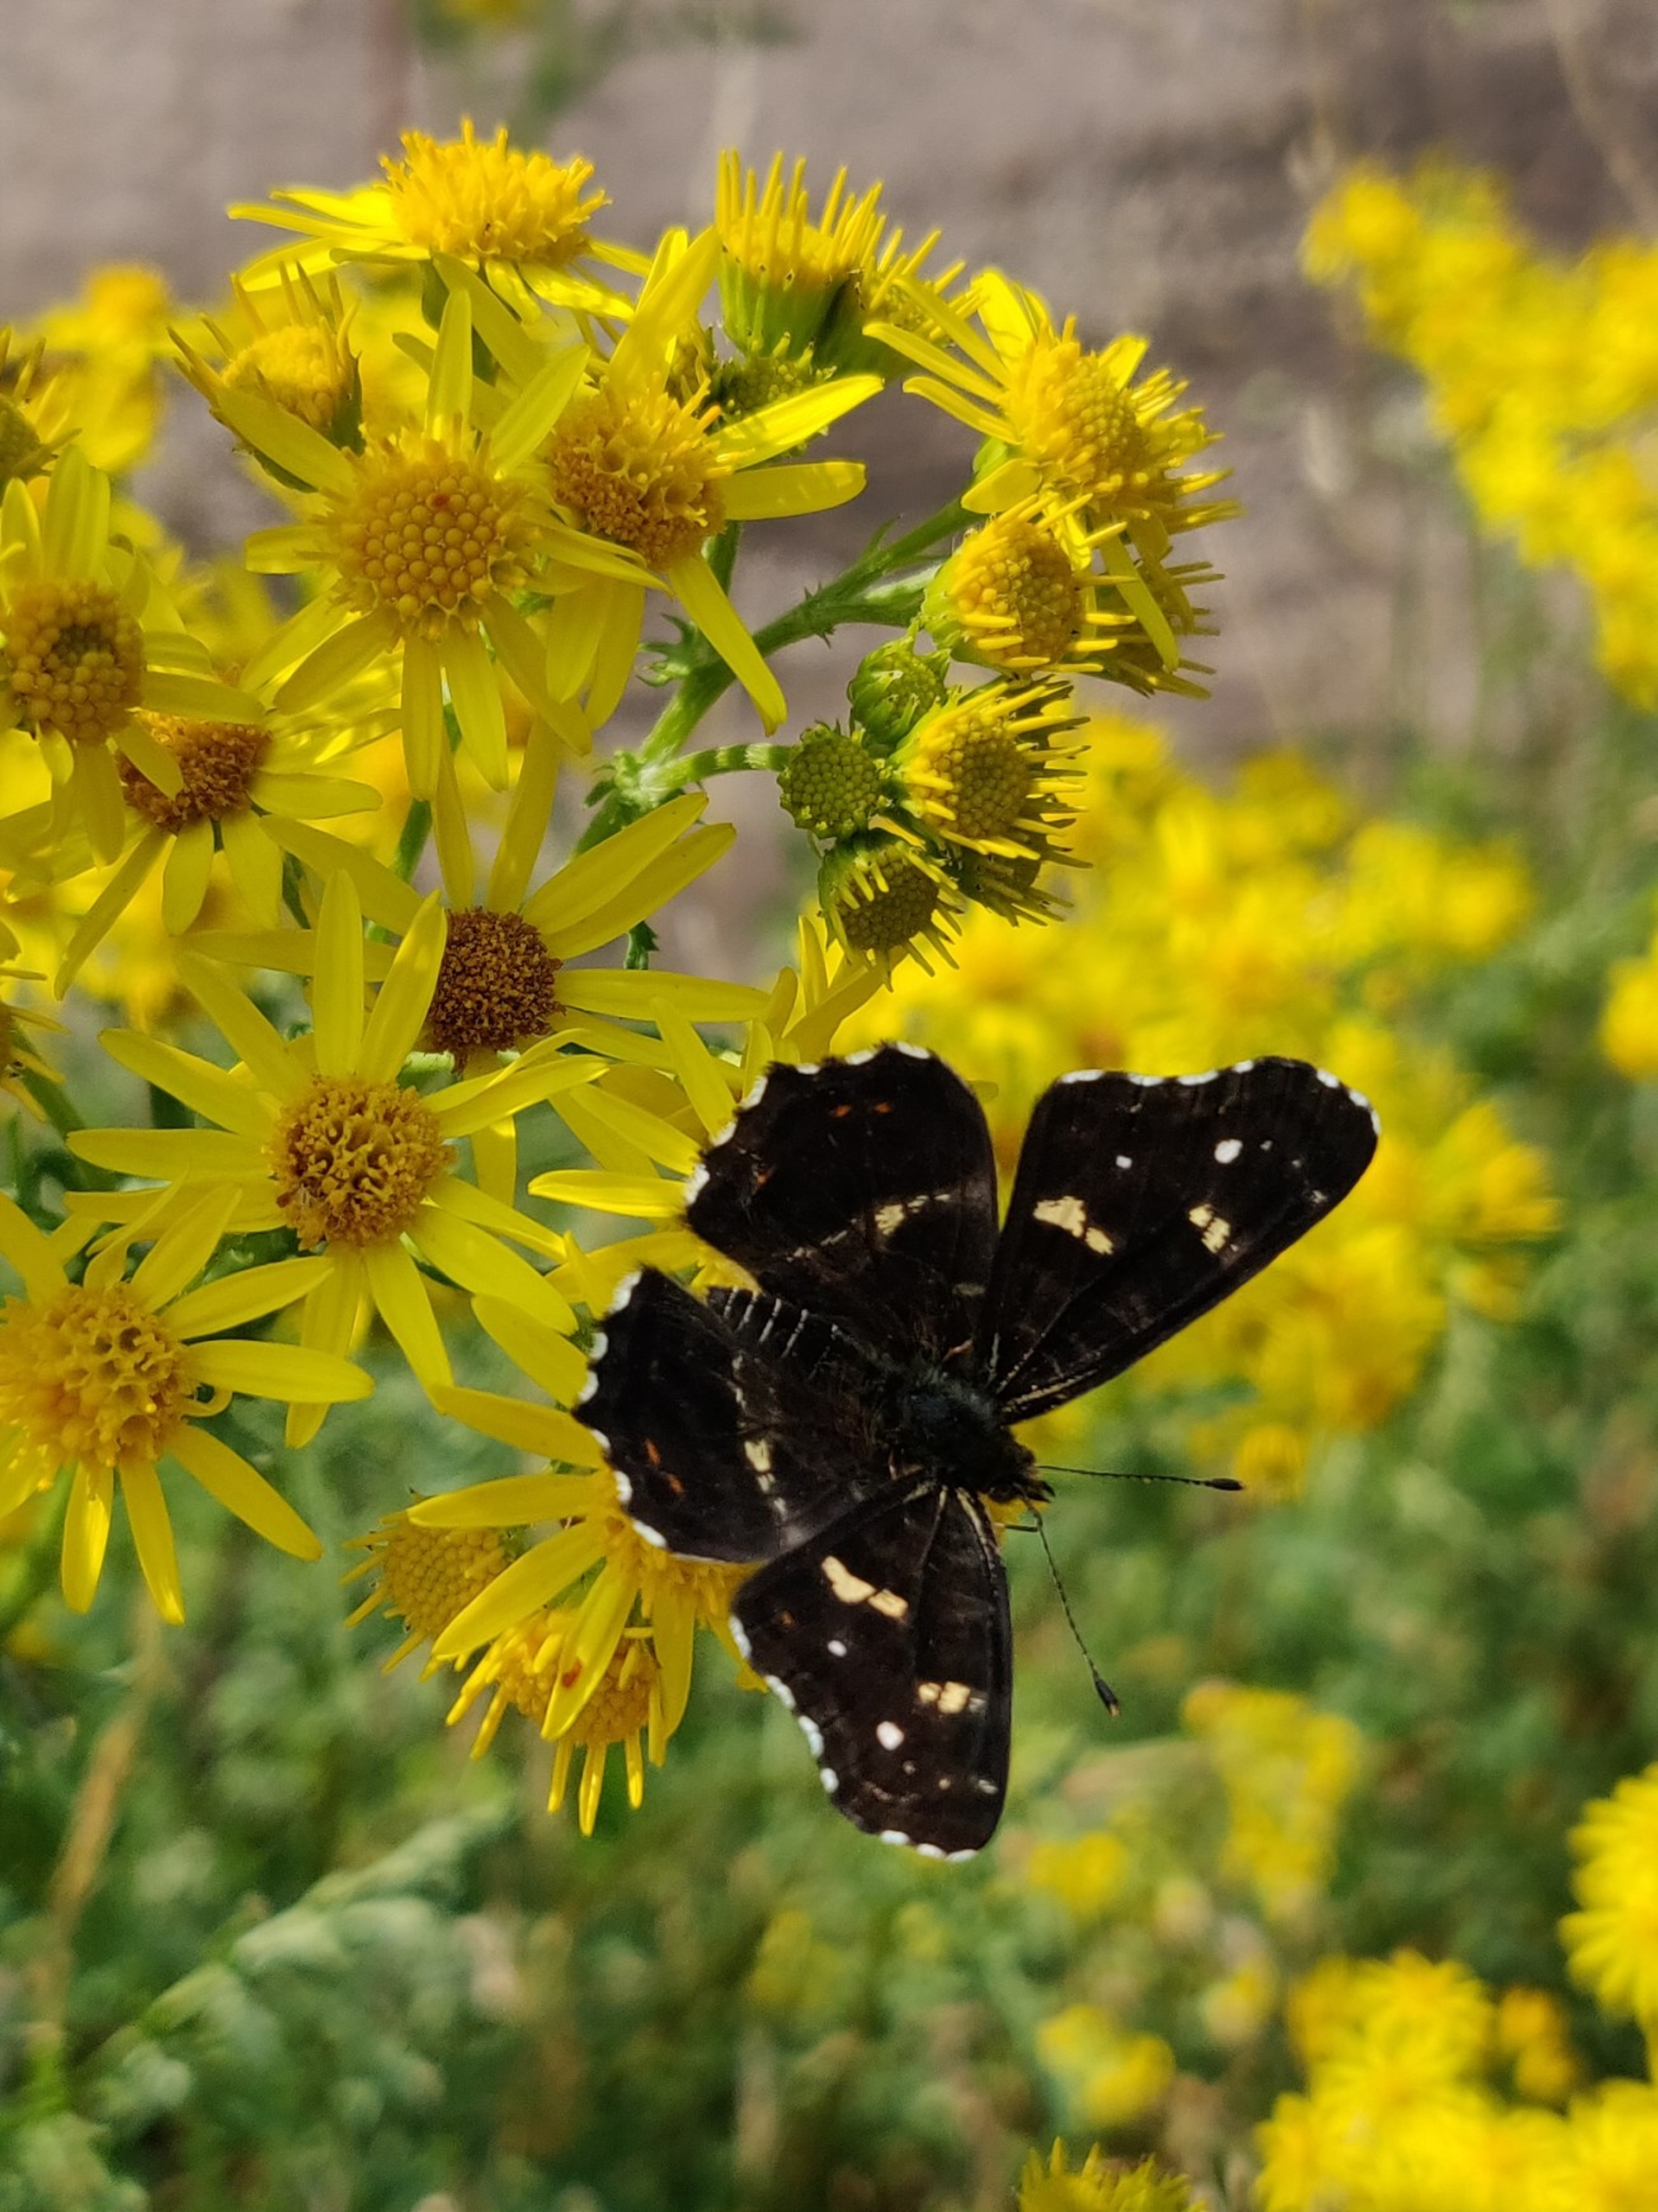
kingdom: Animalia
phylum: Arthropoda
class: Insecta
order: Lepidoptera
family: Nymphalidae
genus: Araschnia
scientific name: Araschnia levana
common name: Nældesommerfugl
